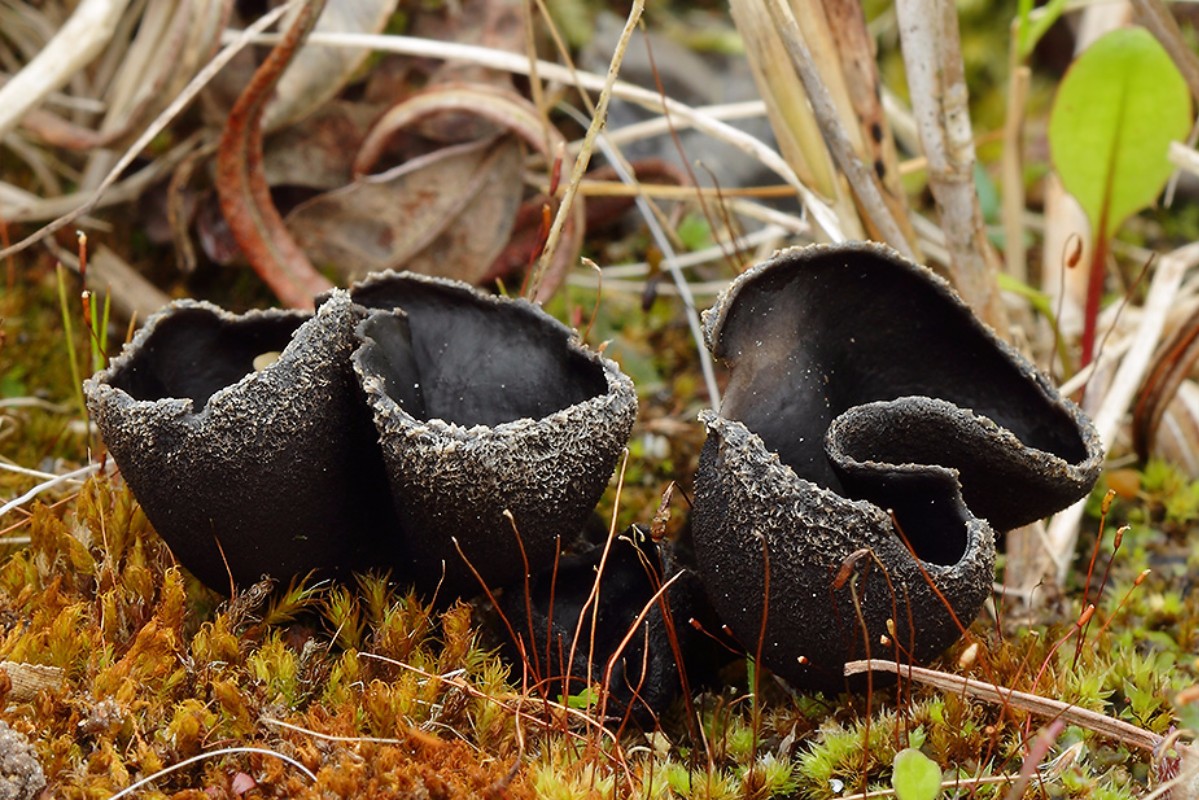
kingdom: Fungi
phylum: Ascomycota
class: Pezizomycetes
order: Pezizales
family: Helvellaceae
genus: Helvella
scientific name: Helvella corium
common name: pile-foldhat
